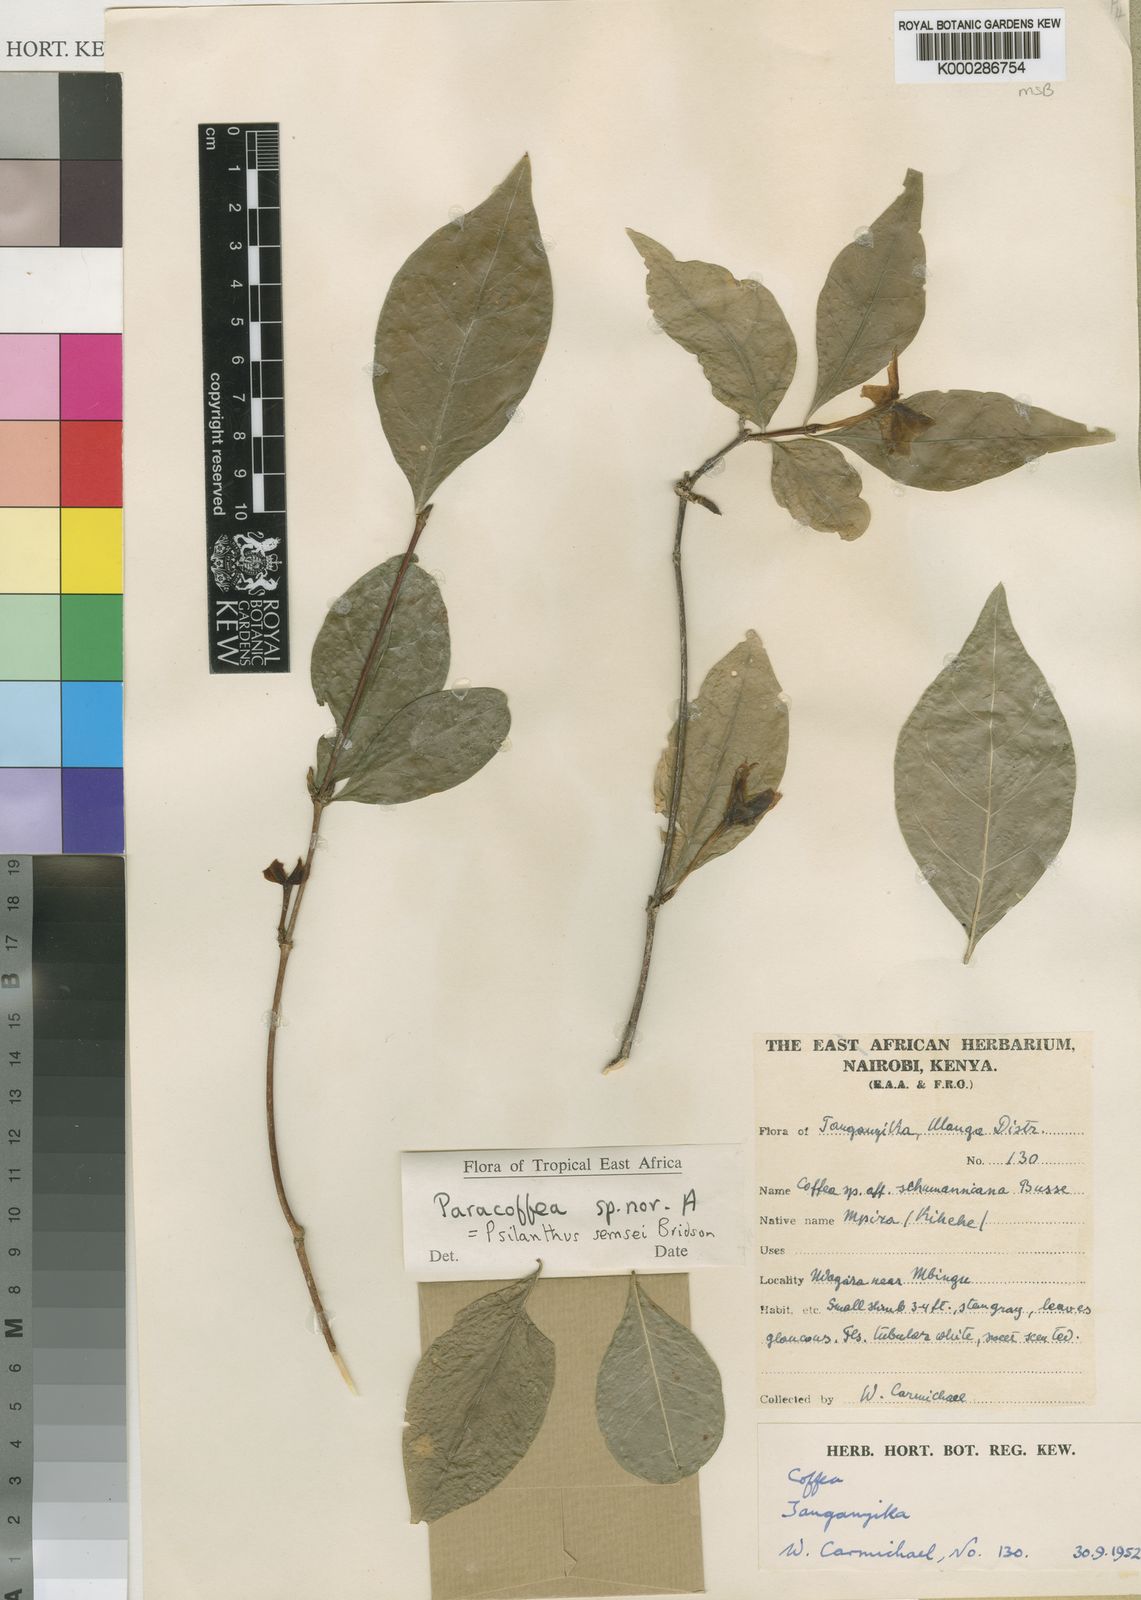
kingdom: Plantae
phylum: Tracheophyta
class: Magnoliopsida
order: Gentianales
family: Rubiaceae
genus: Coffea
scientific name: Coffea semsei
